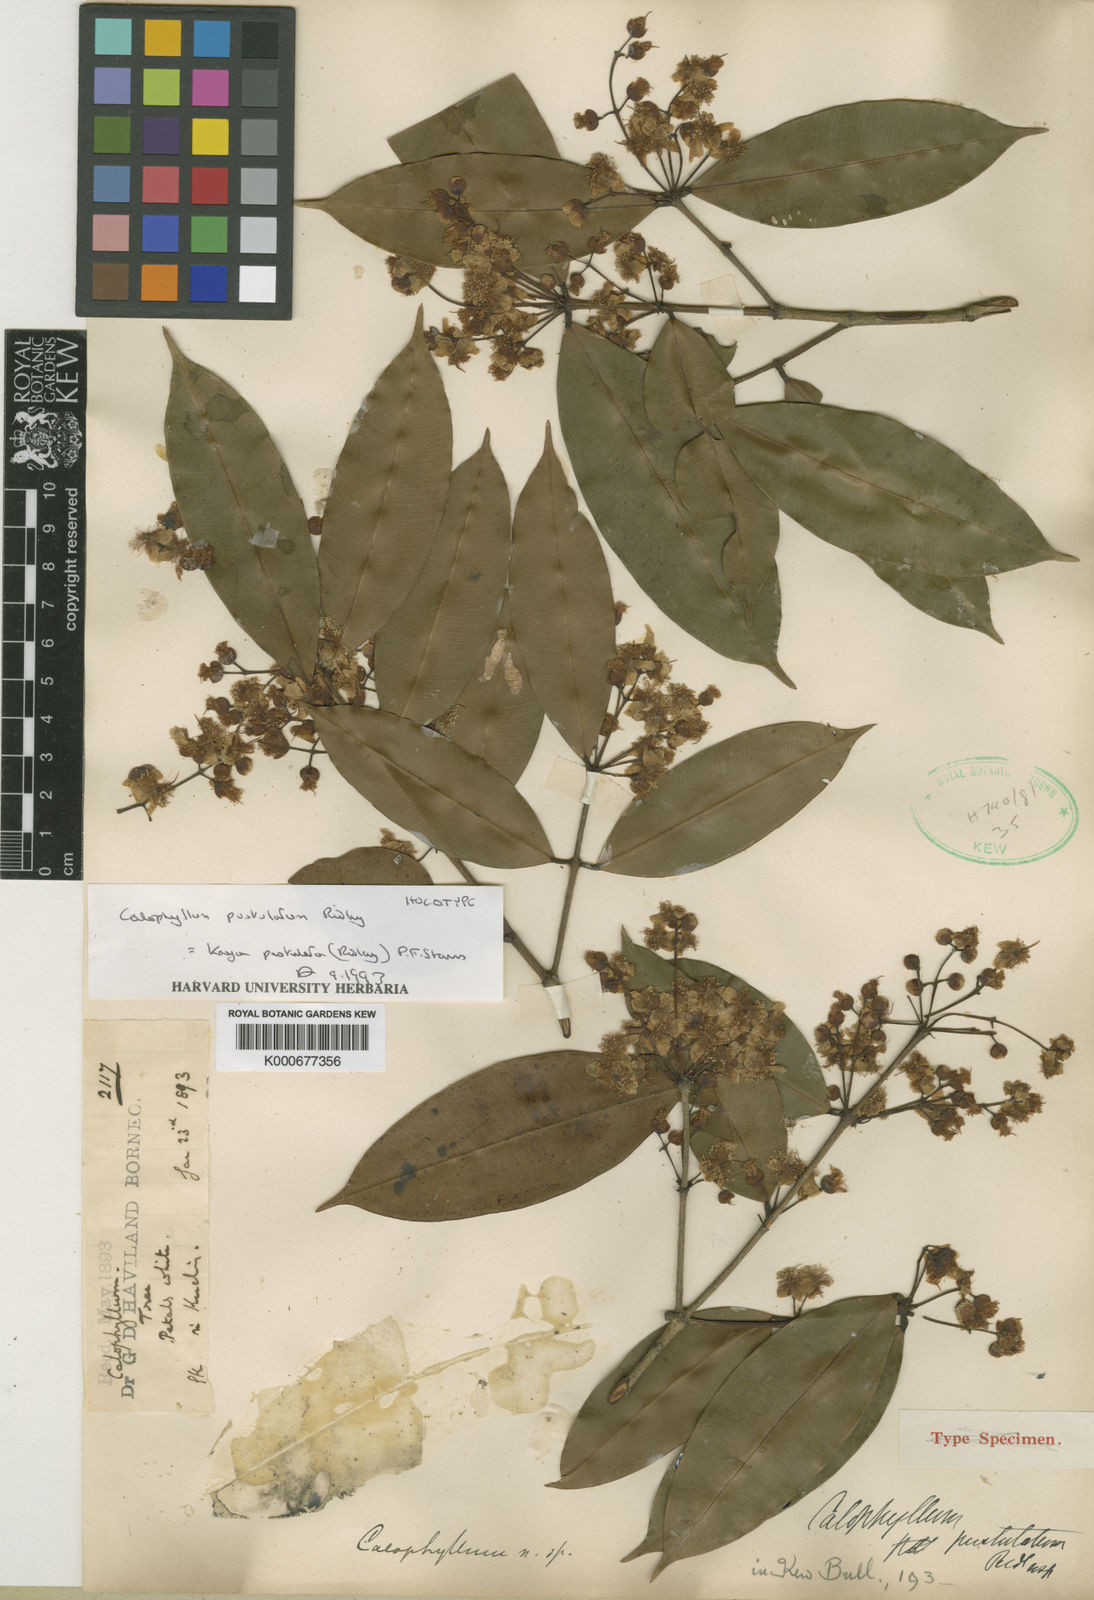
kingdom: Plantae
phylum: Tracheophyta
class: Magnoliopsida
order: Malpighiales
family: Calophyllaceae
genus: Kayea
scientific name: Kayea
